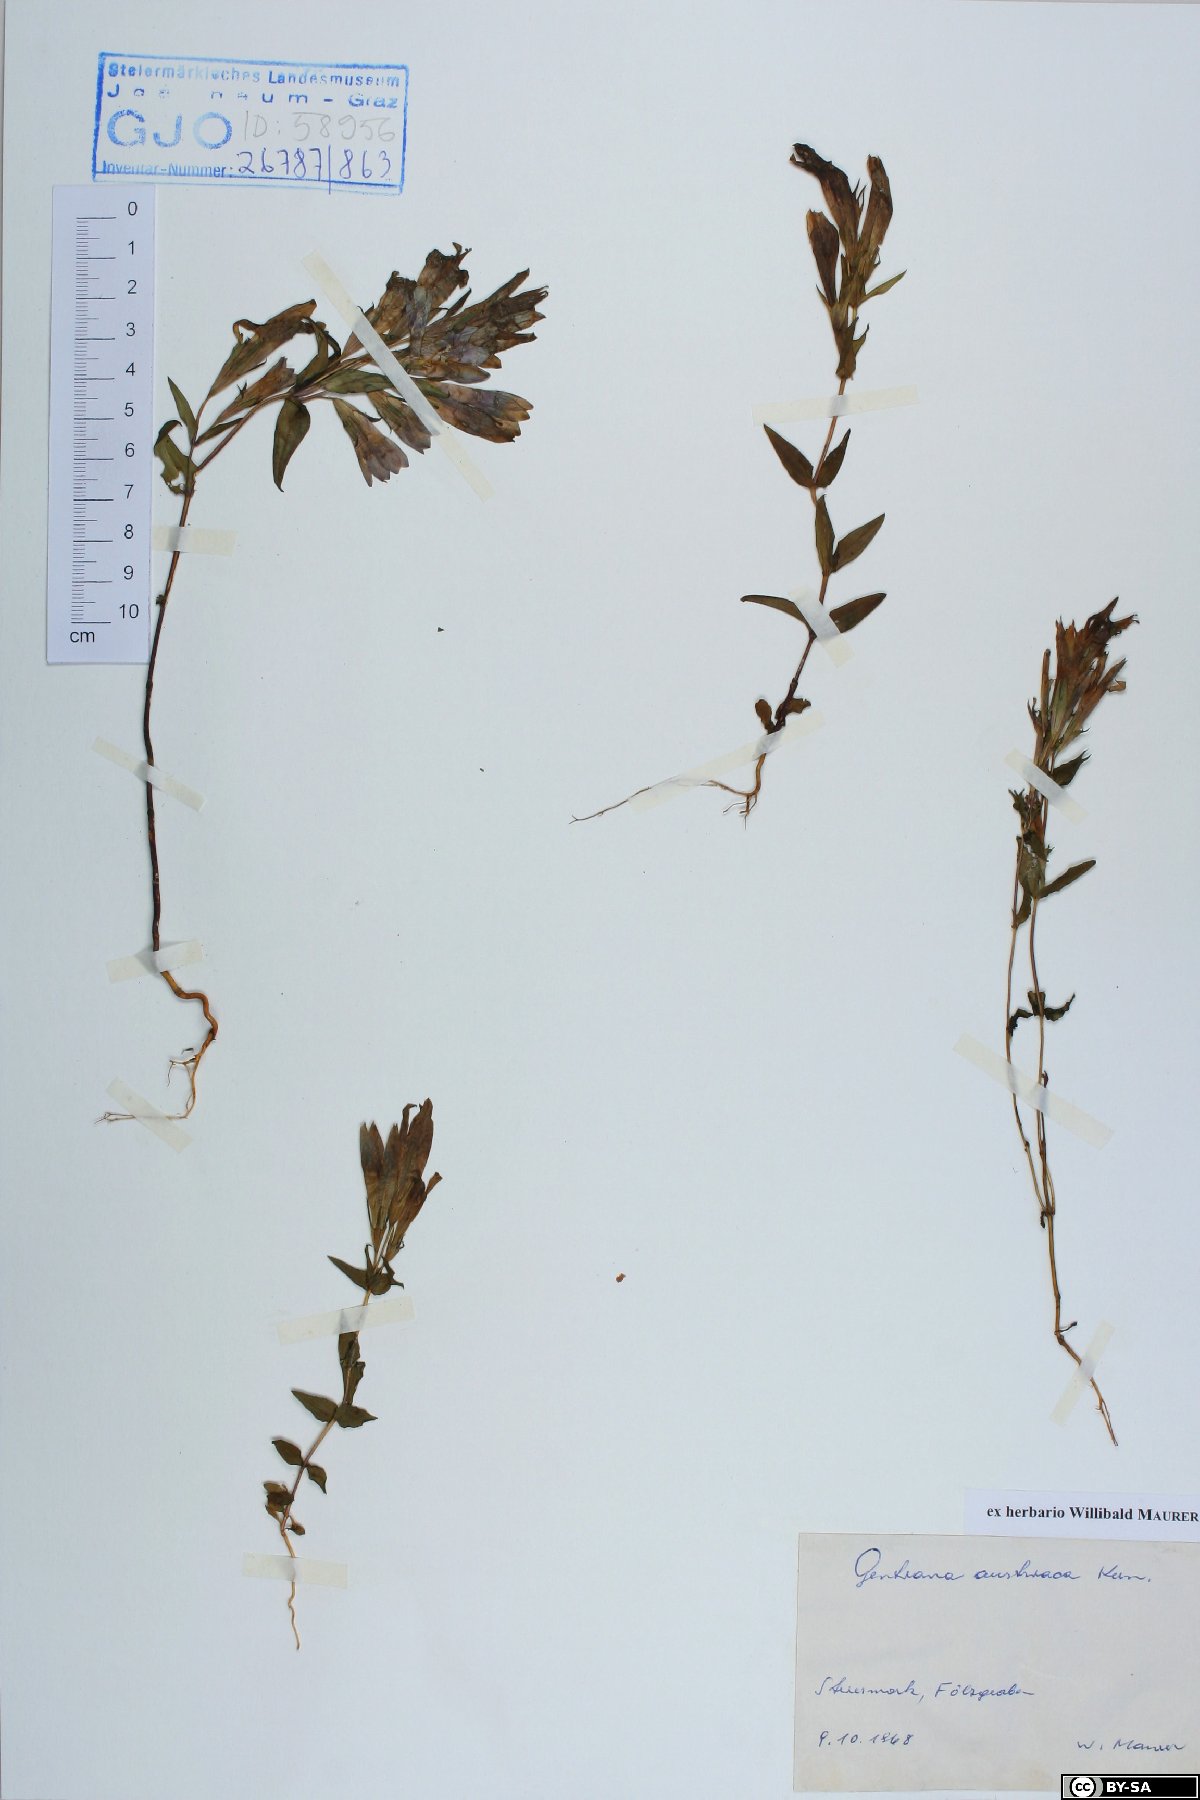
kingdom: Plantae
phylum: Tracheophyta
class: Magnoliopsida
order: Gentianales
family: Gentianaceae
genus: Gentianella
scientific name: Gentianella austriaca
